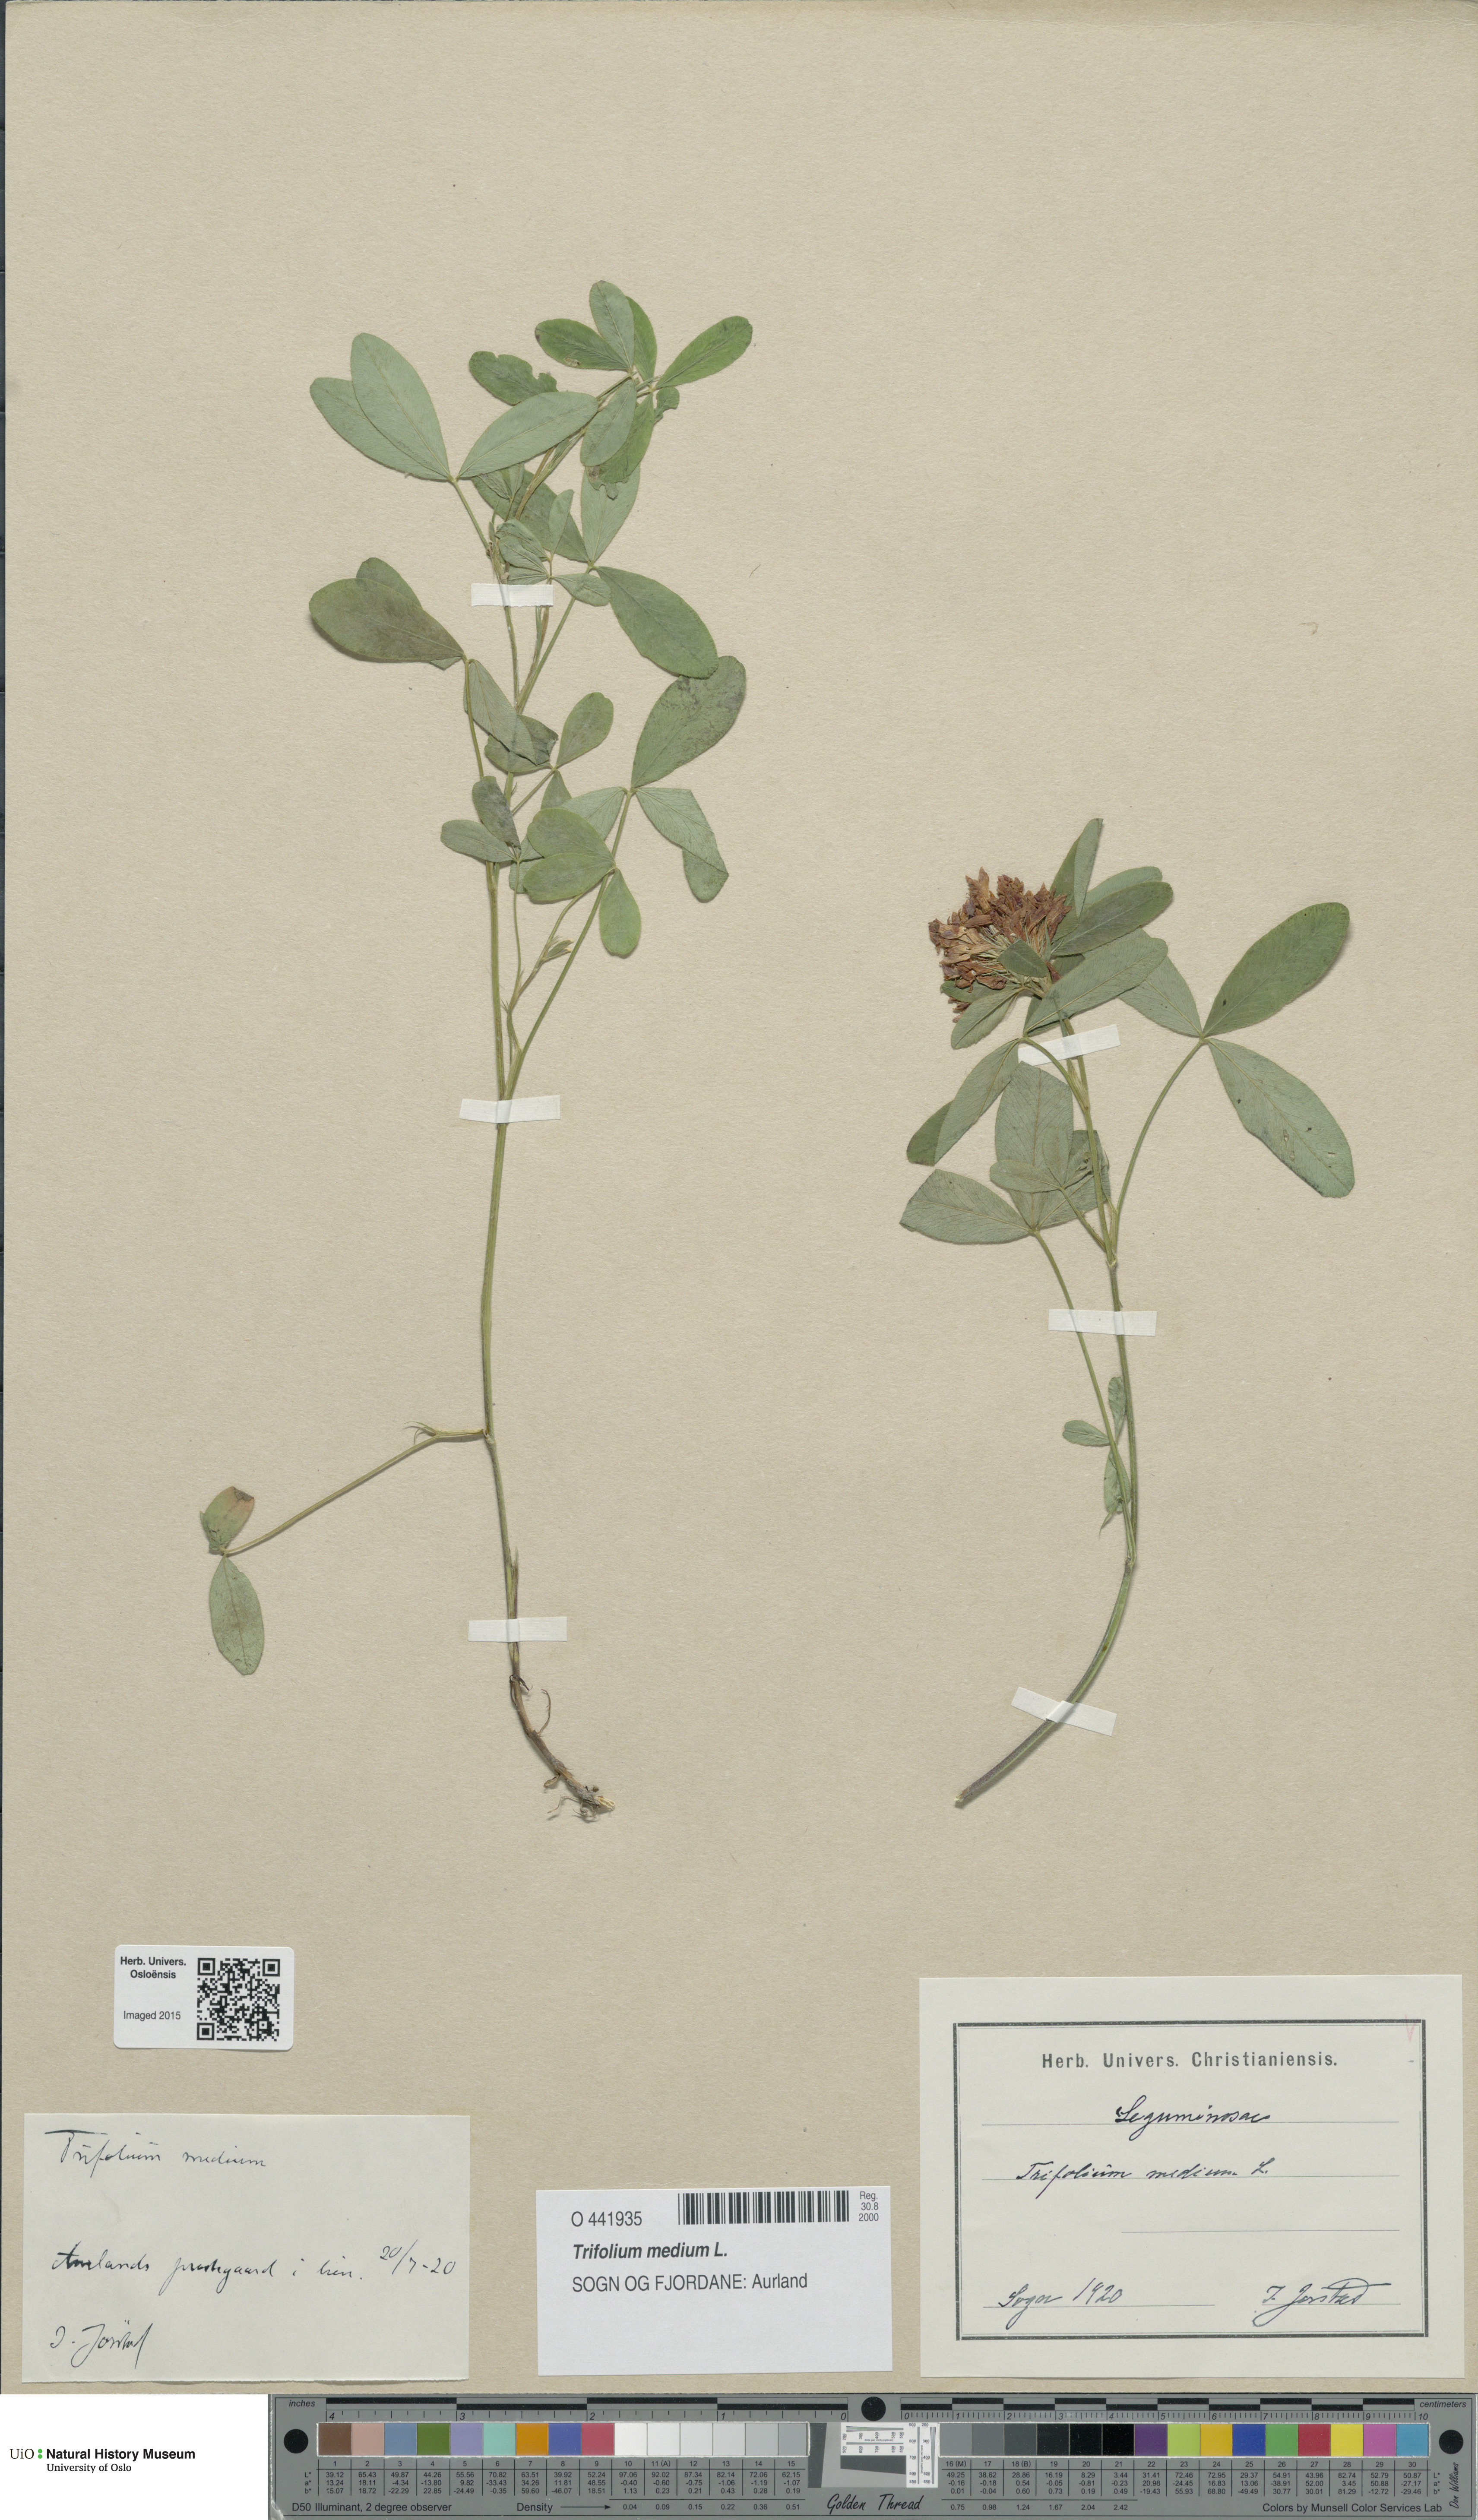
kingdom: Plantae
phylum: Tracheophyta
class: Magnoliopsida
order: Fabales
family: Fabaceae
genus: Trifolium
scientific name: Trifolium medium
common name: Zigzag clover
